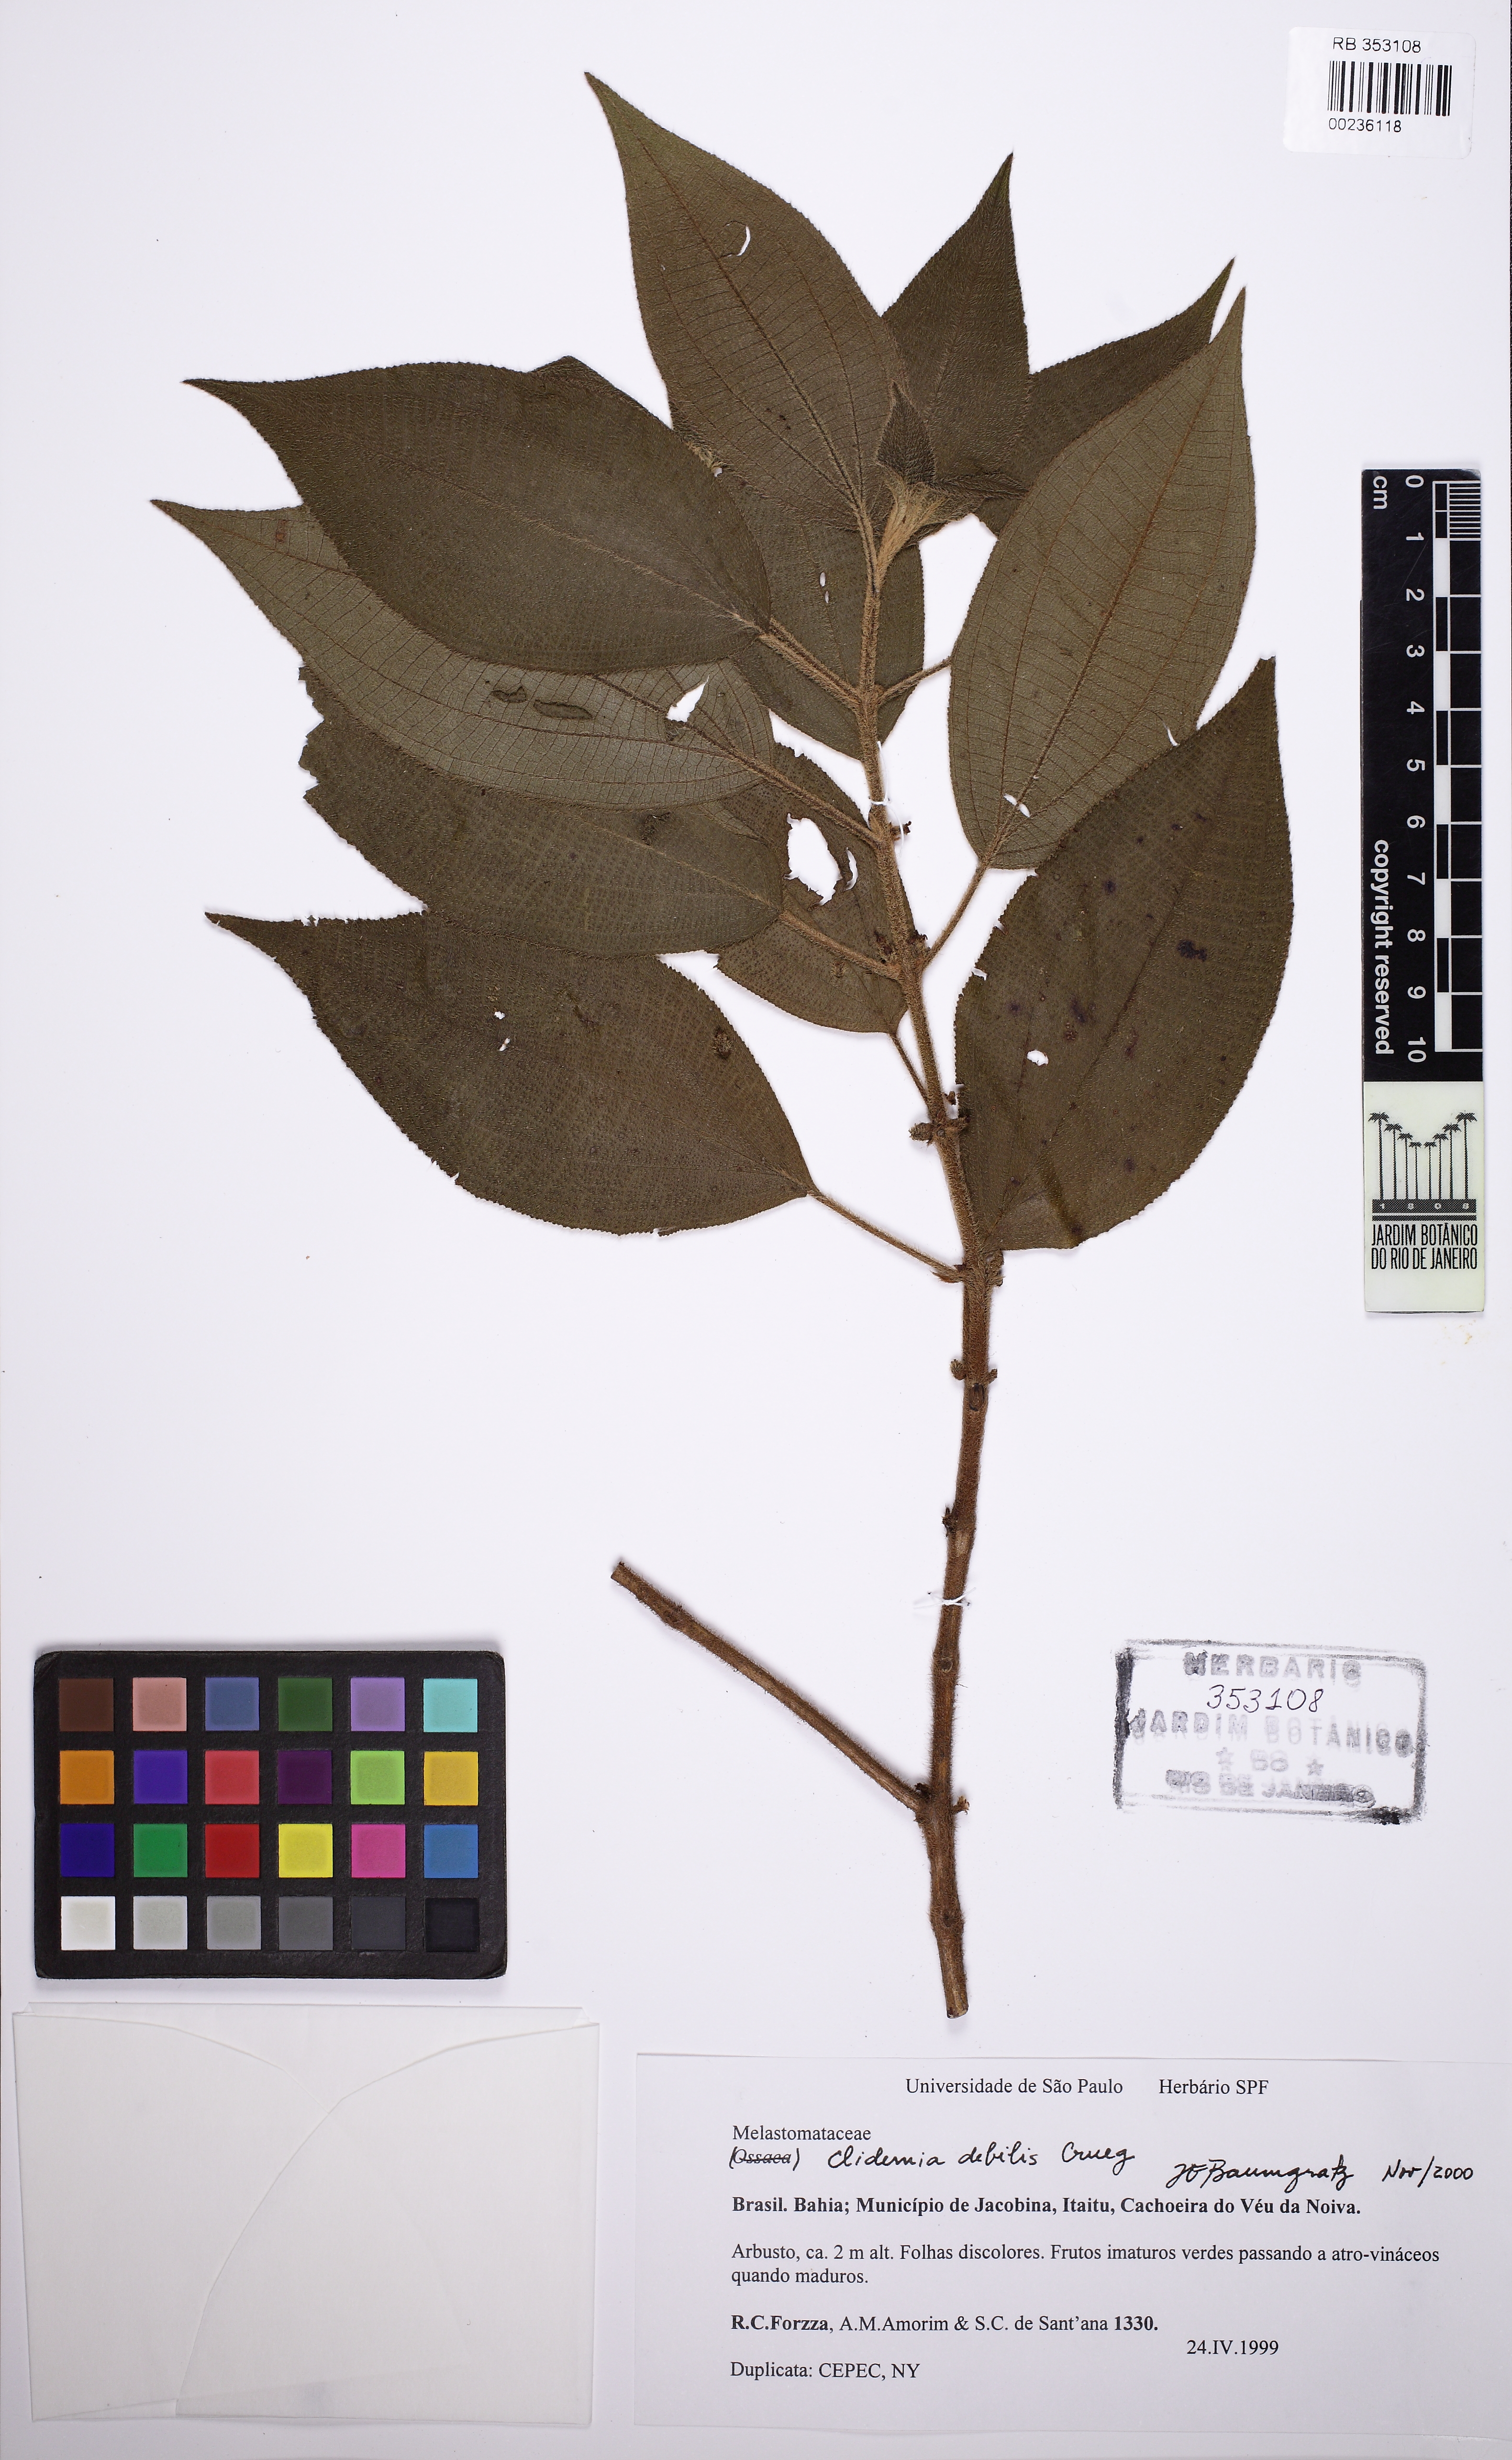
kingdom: Plantae
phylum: Tracheophyta
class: Magnoliopsida
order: Myrtales
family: Melastomataceae
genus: Miconia
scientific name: Miconia debilis
